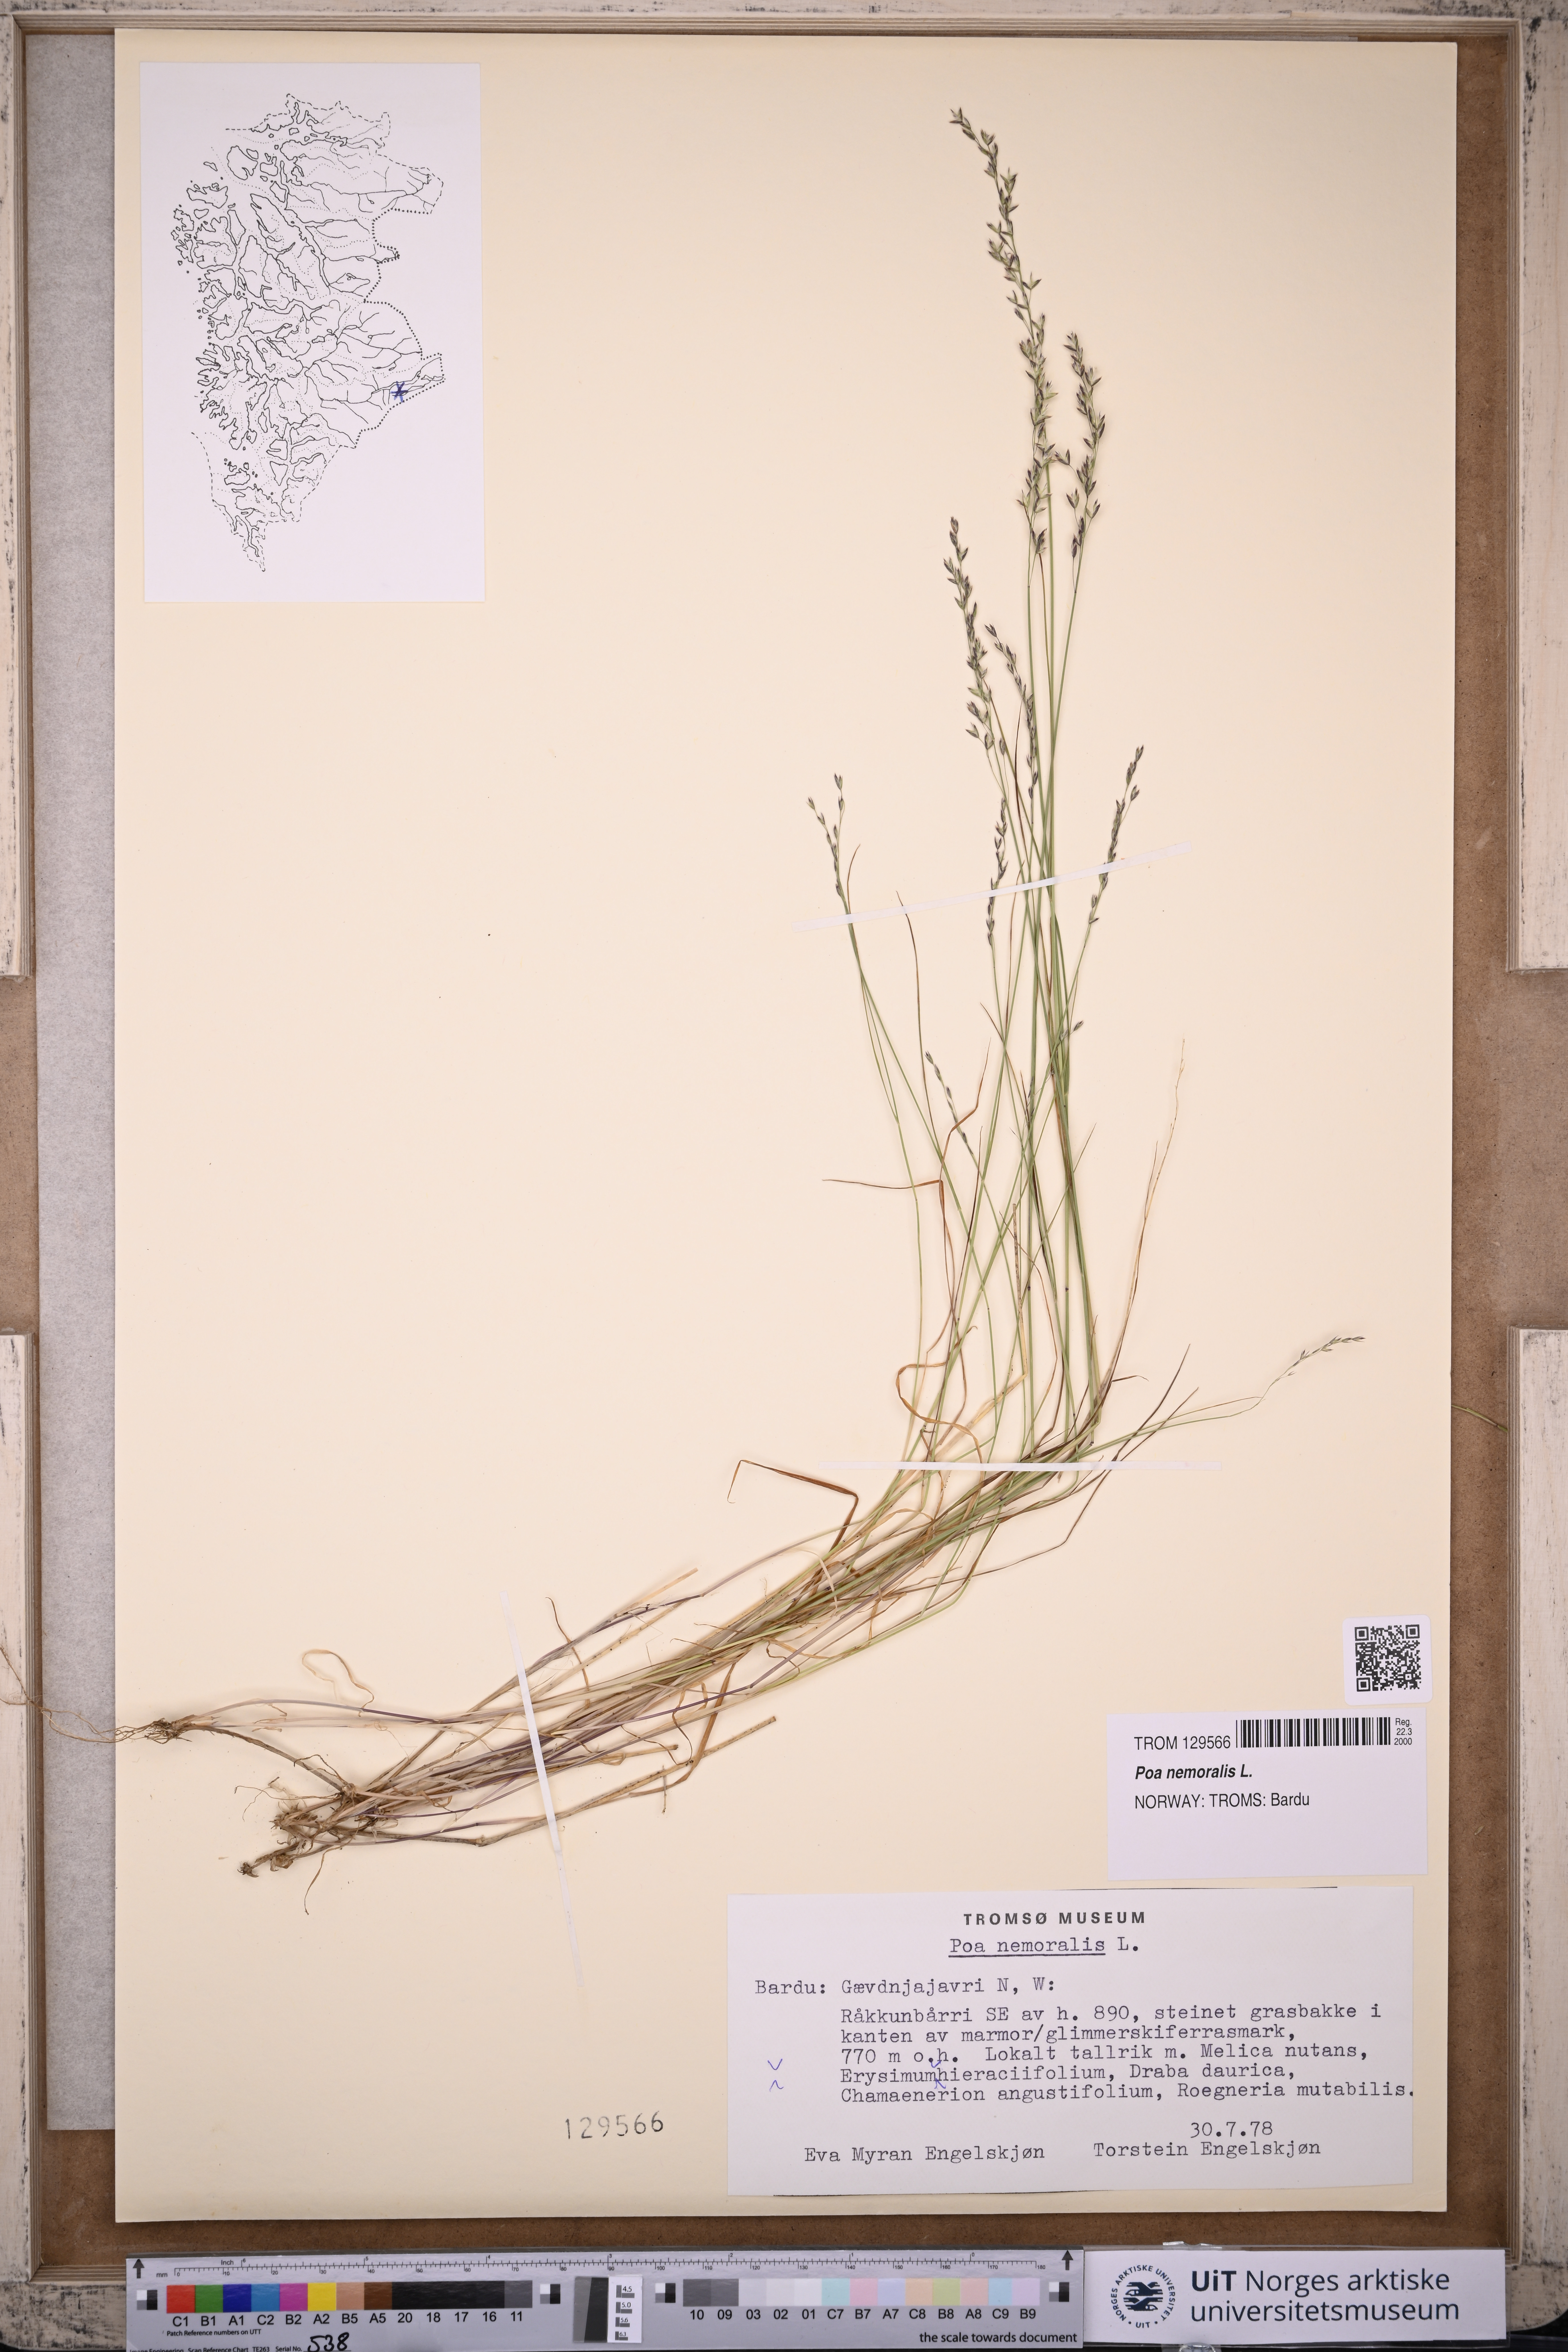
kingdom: Plantae
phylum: Tracheophyta
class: Liliopsida
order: Poales
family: Poaceae
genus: Poa
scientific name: Poa nemoralis
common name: Wood bluegrass
